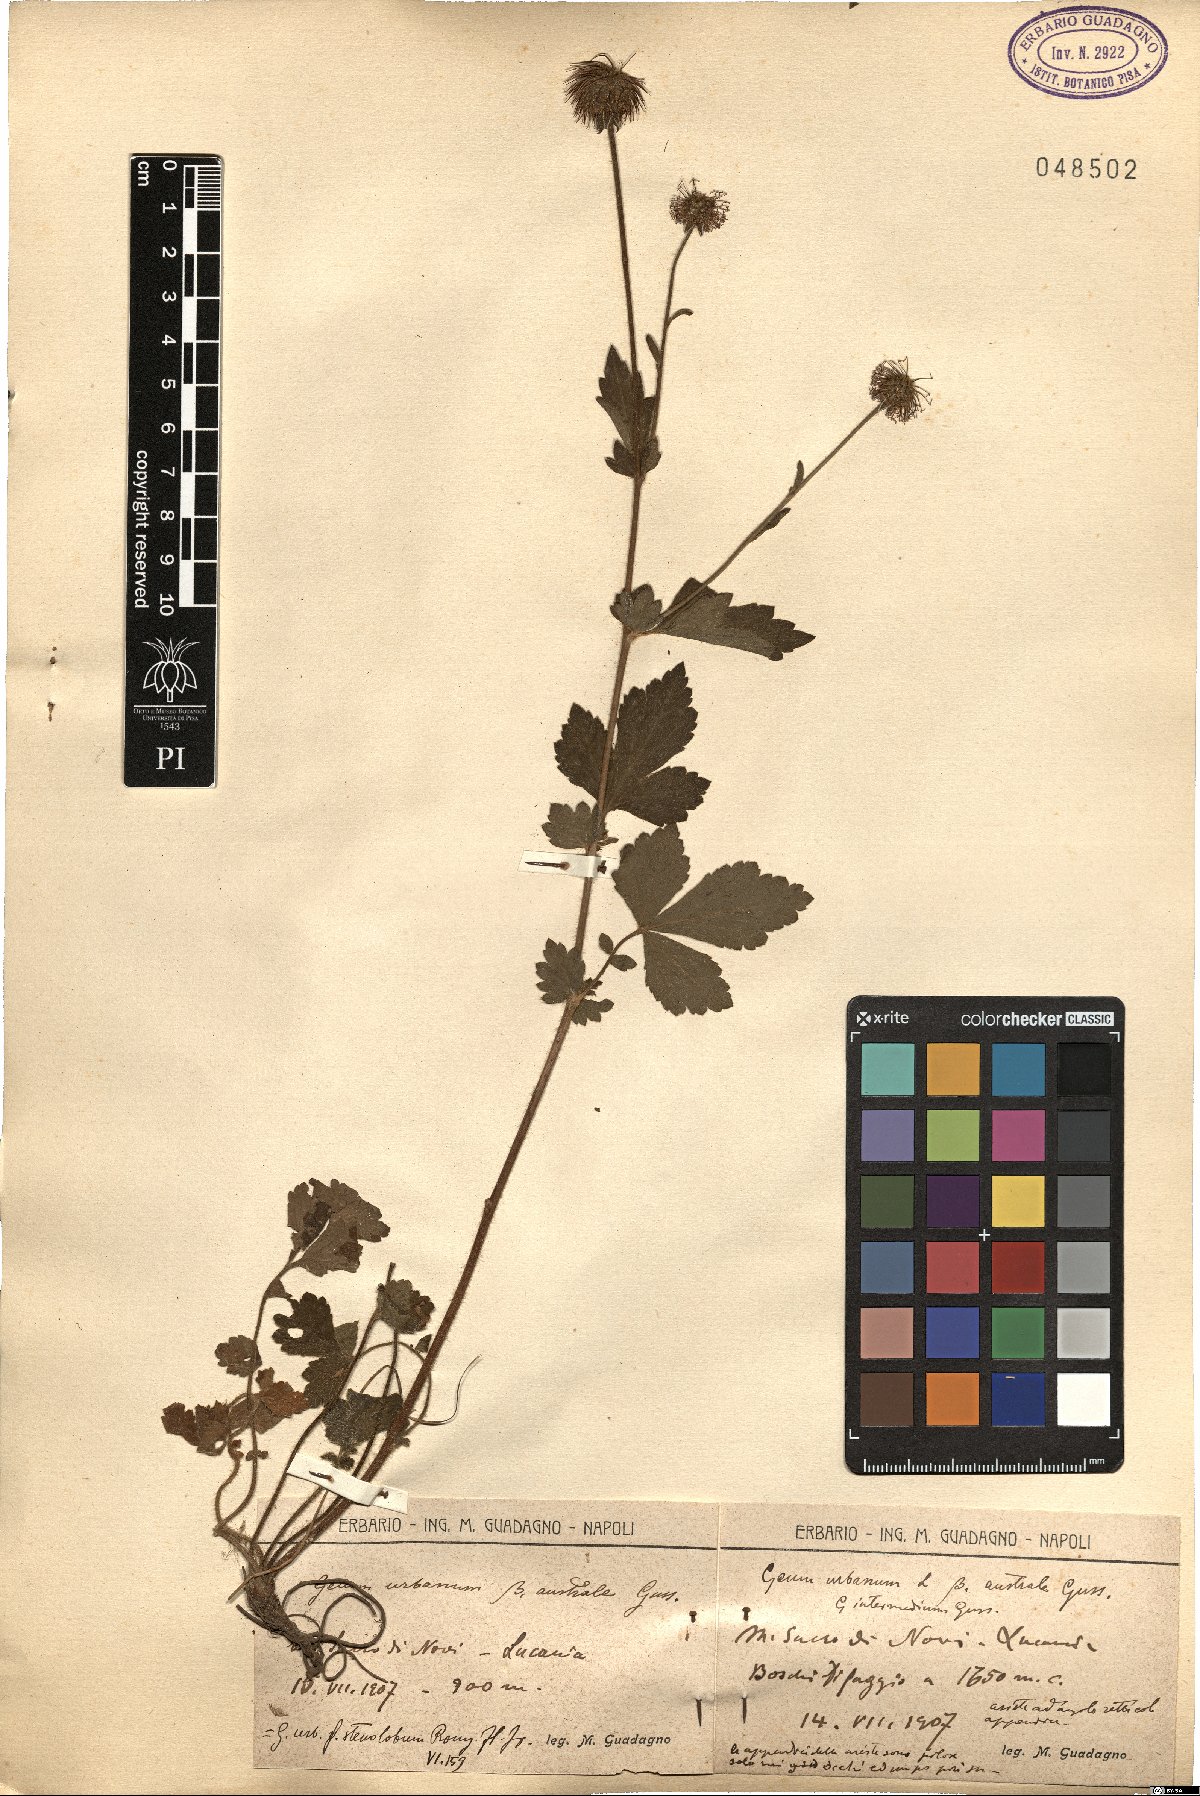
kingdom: Plantae
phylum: Tracheophyta
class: Magnoliopsida
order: Rosales
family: Rosaceae
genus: Geum
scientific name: Geum urbanum
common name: Wood avens
